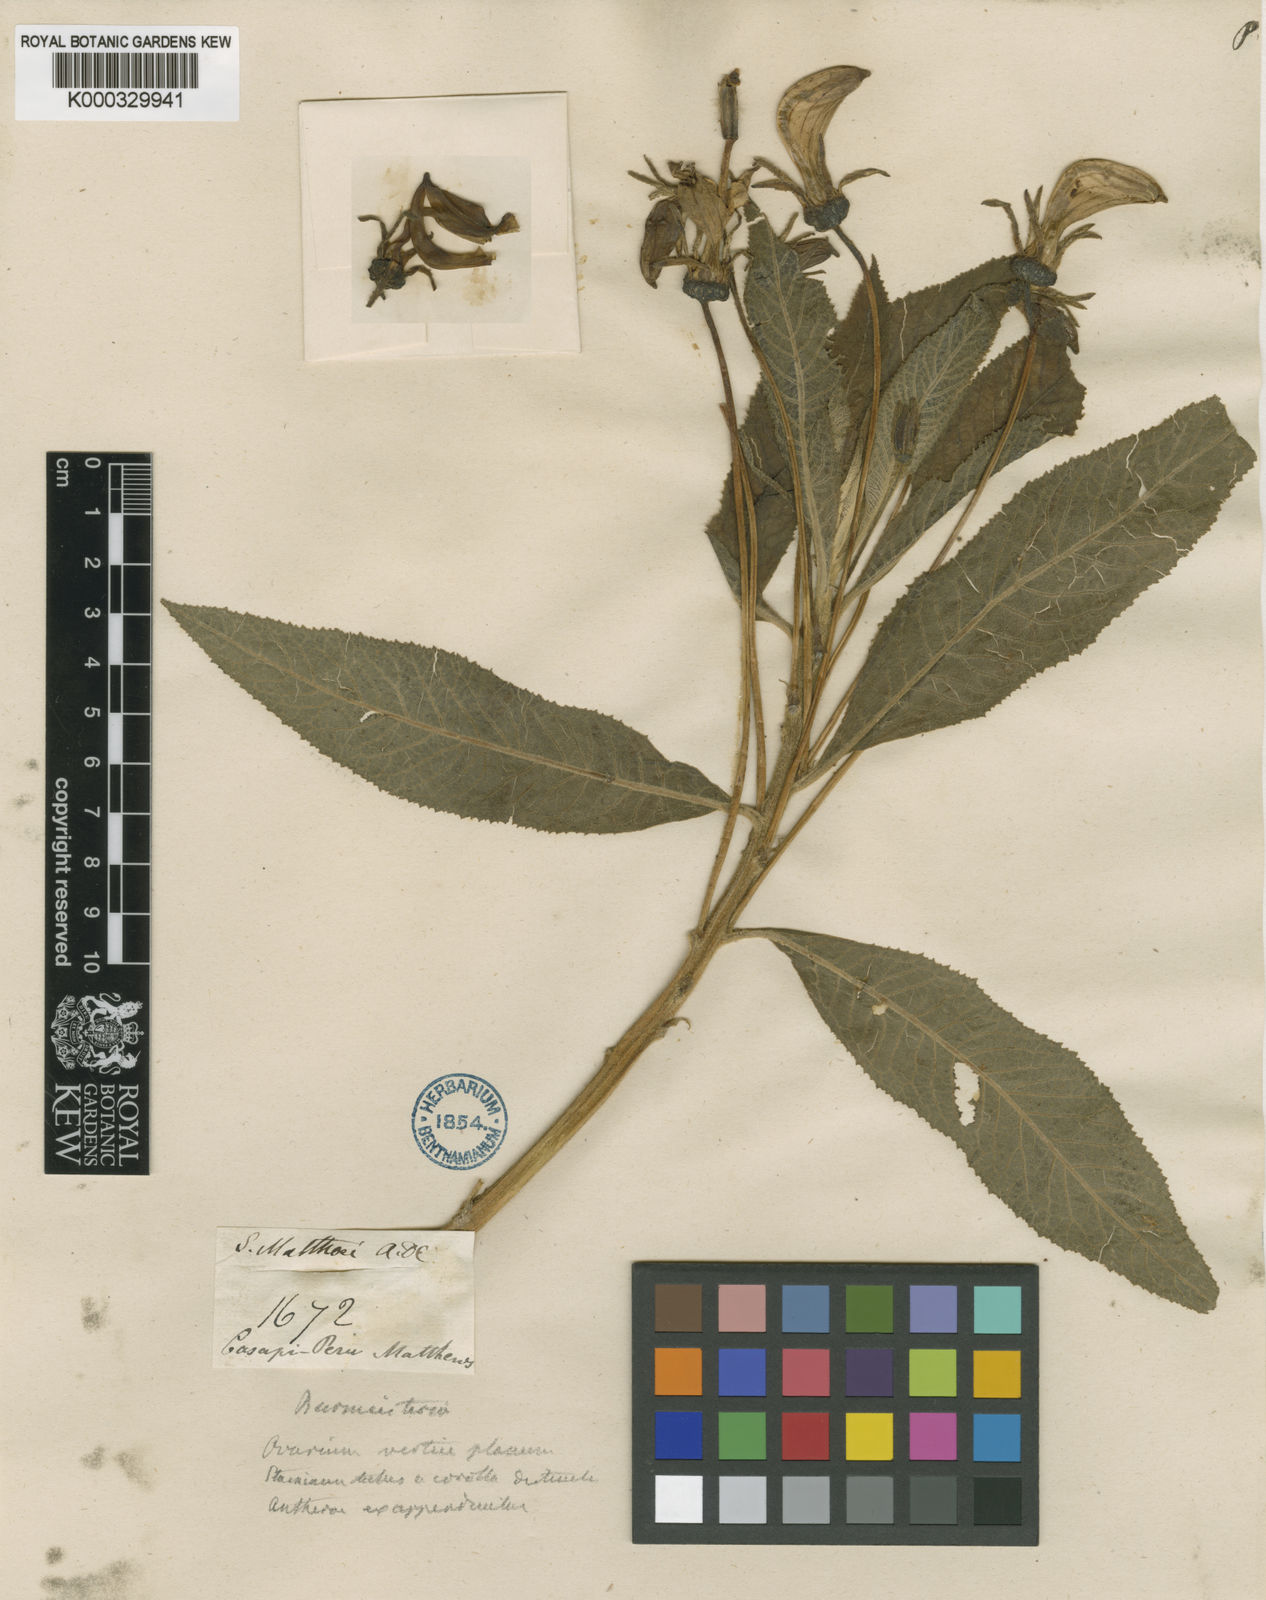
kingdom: Plantae
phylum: Tracheophyta
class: Magnoliopsida
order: Asterales
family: Campanulaceae
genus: Siphocampylus
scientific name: Siphocampylus matthiaei
